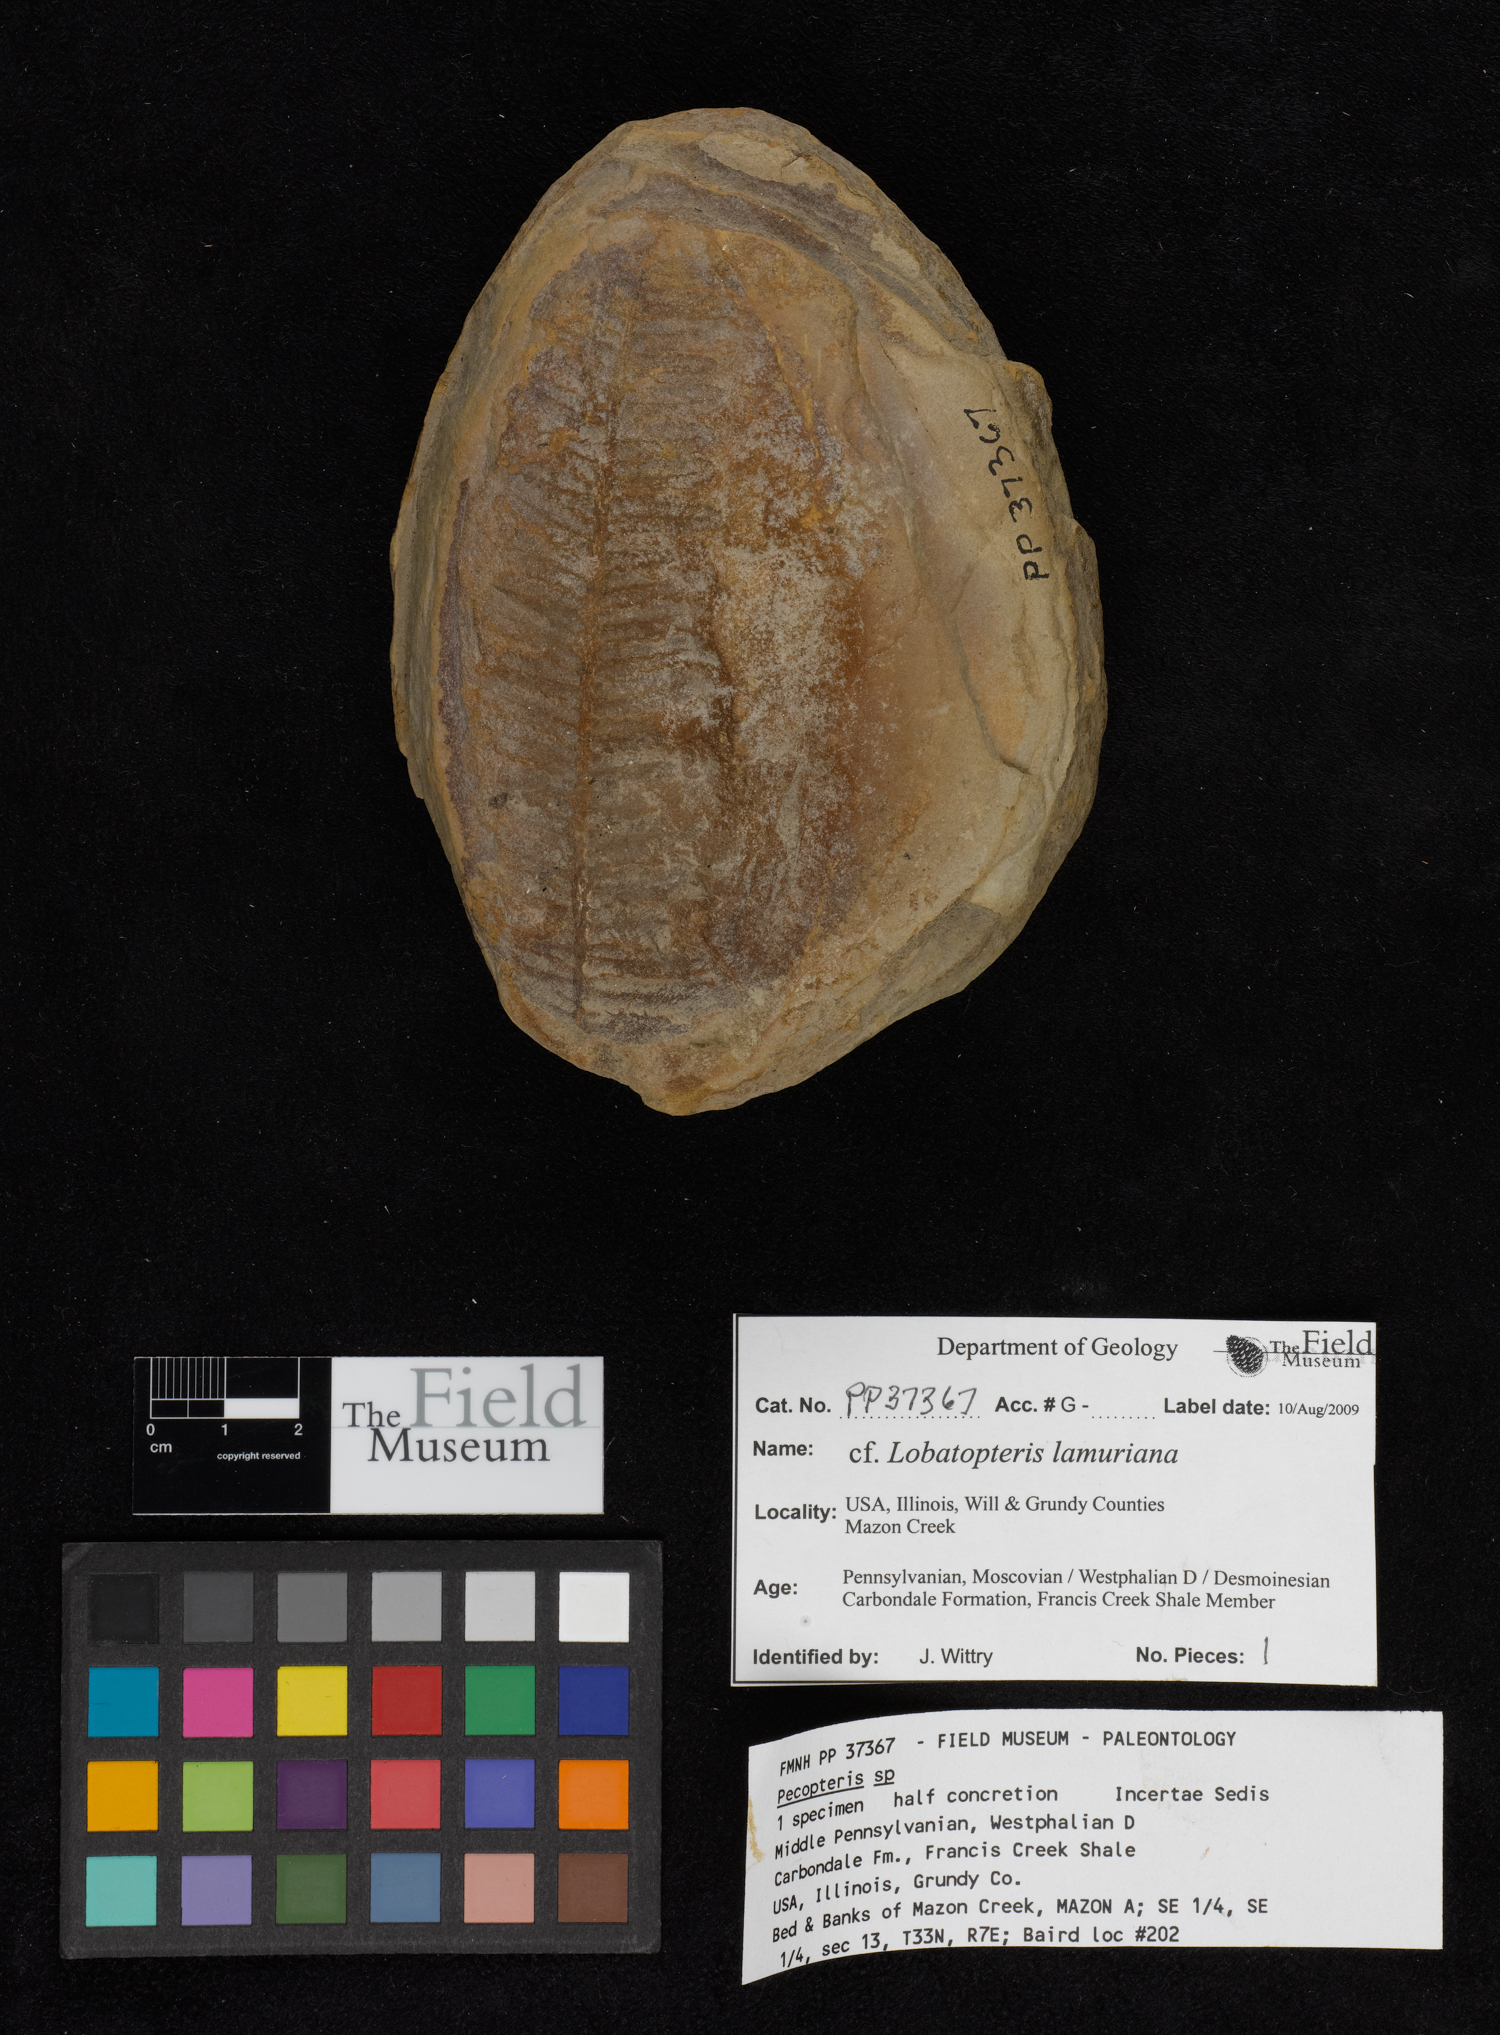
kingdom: Plantae
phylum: Tracheophyta
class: Polypodiopsida
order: Marattiales
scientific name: Marattiales
